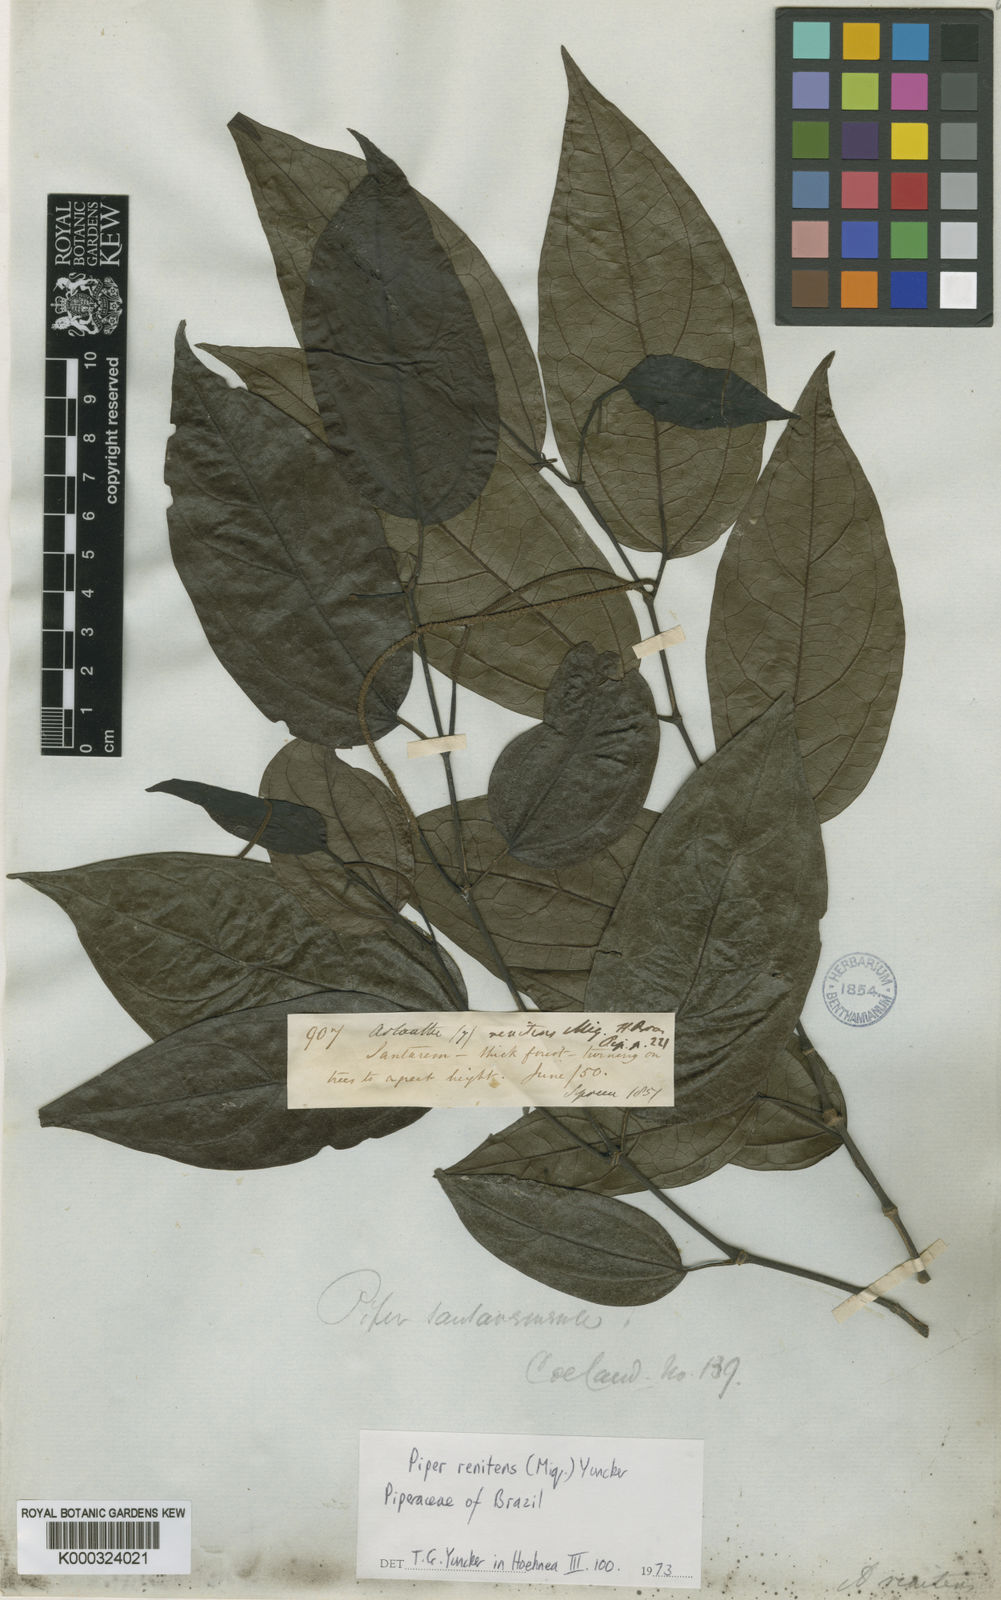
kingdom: Plantae
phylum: Tracheophyta
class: Magnoliopsida
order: Piperales
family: Piperaceae
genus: Piper
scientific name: Piper renitens
